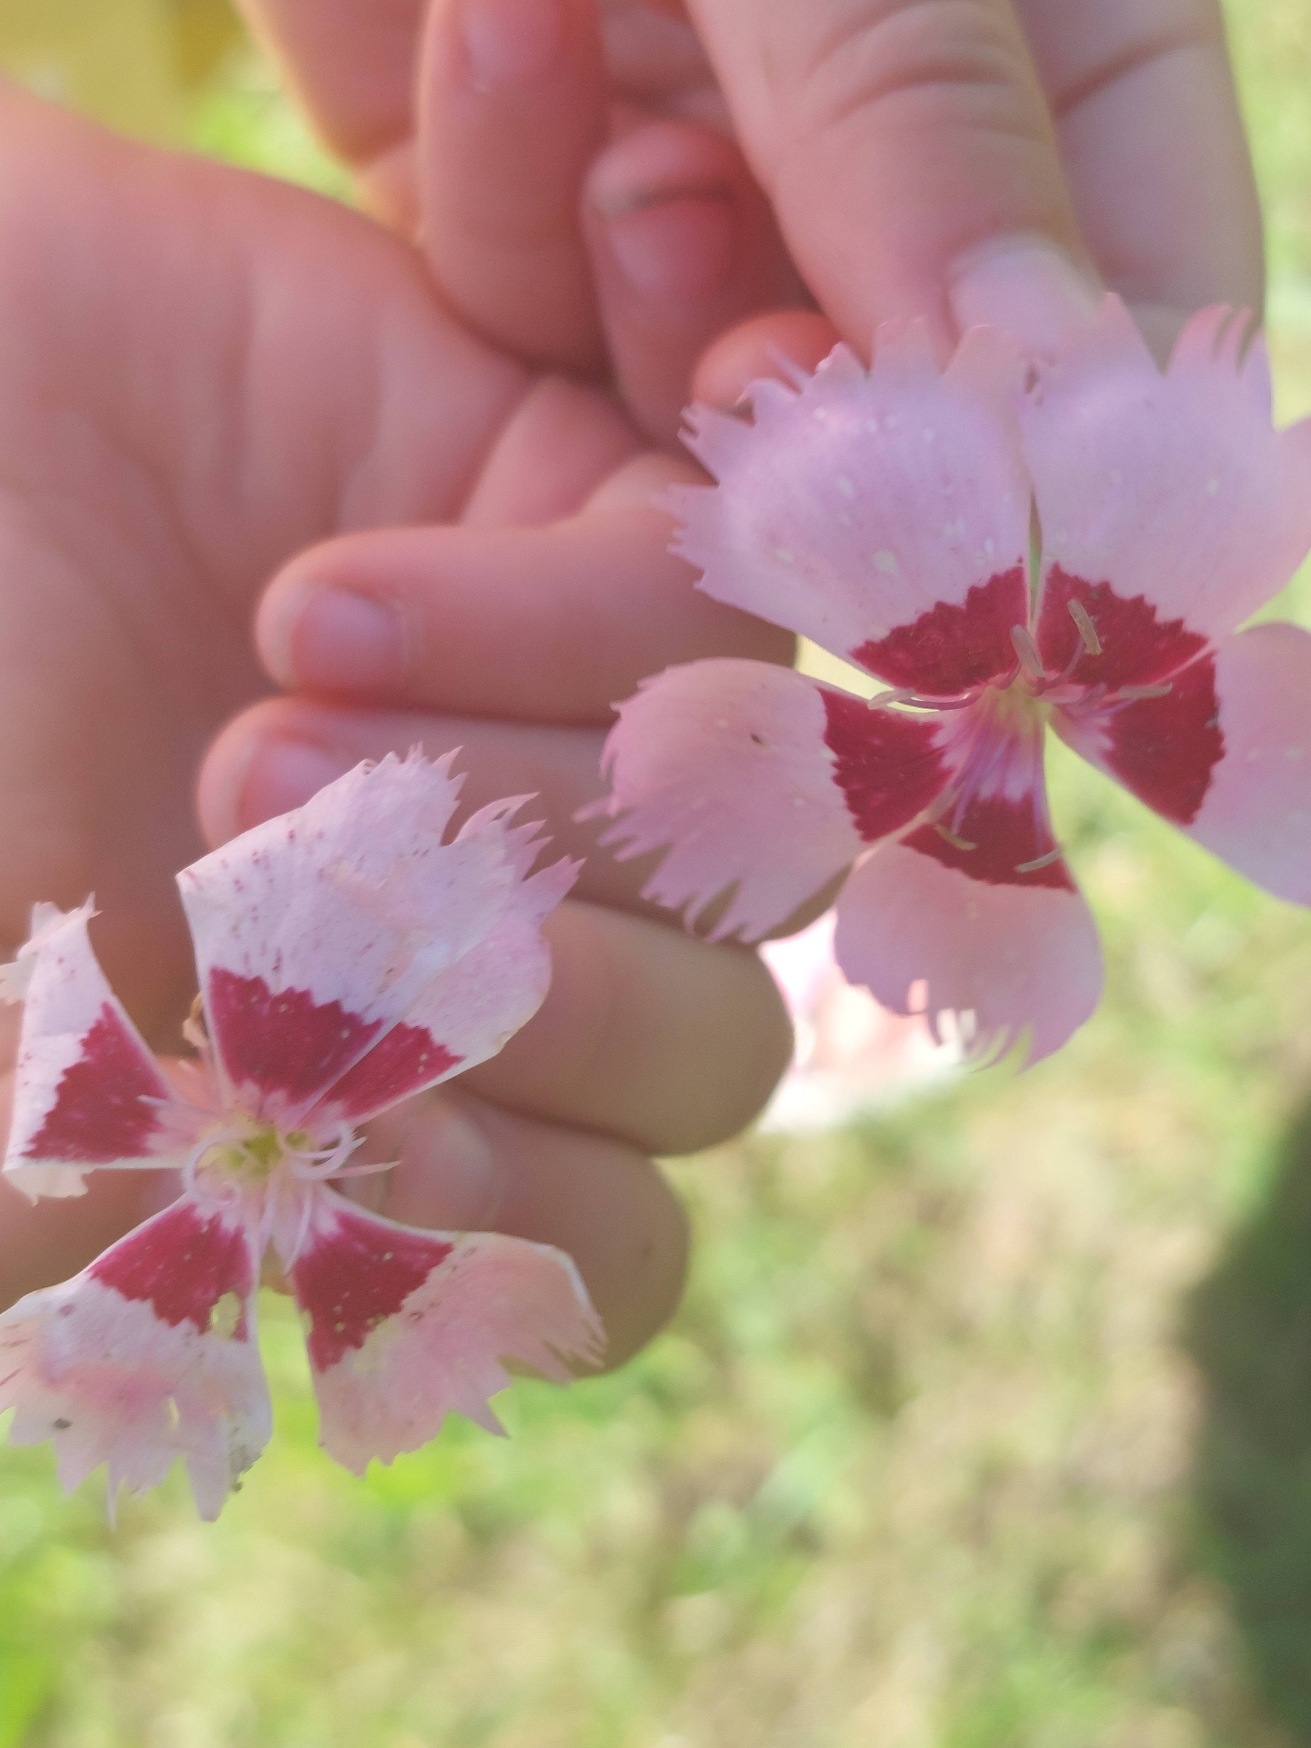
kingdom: Plantae
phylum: Tracheophyta
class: Magnoliopsida
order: Caryophyllales
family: Caryophyllaceae
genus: Dianthus
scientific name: Dianthus plumarius
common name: Fjernellike
